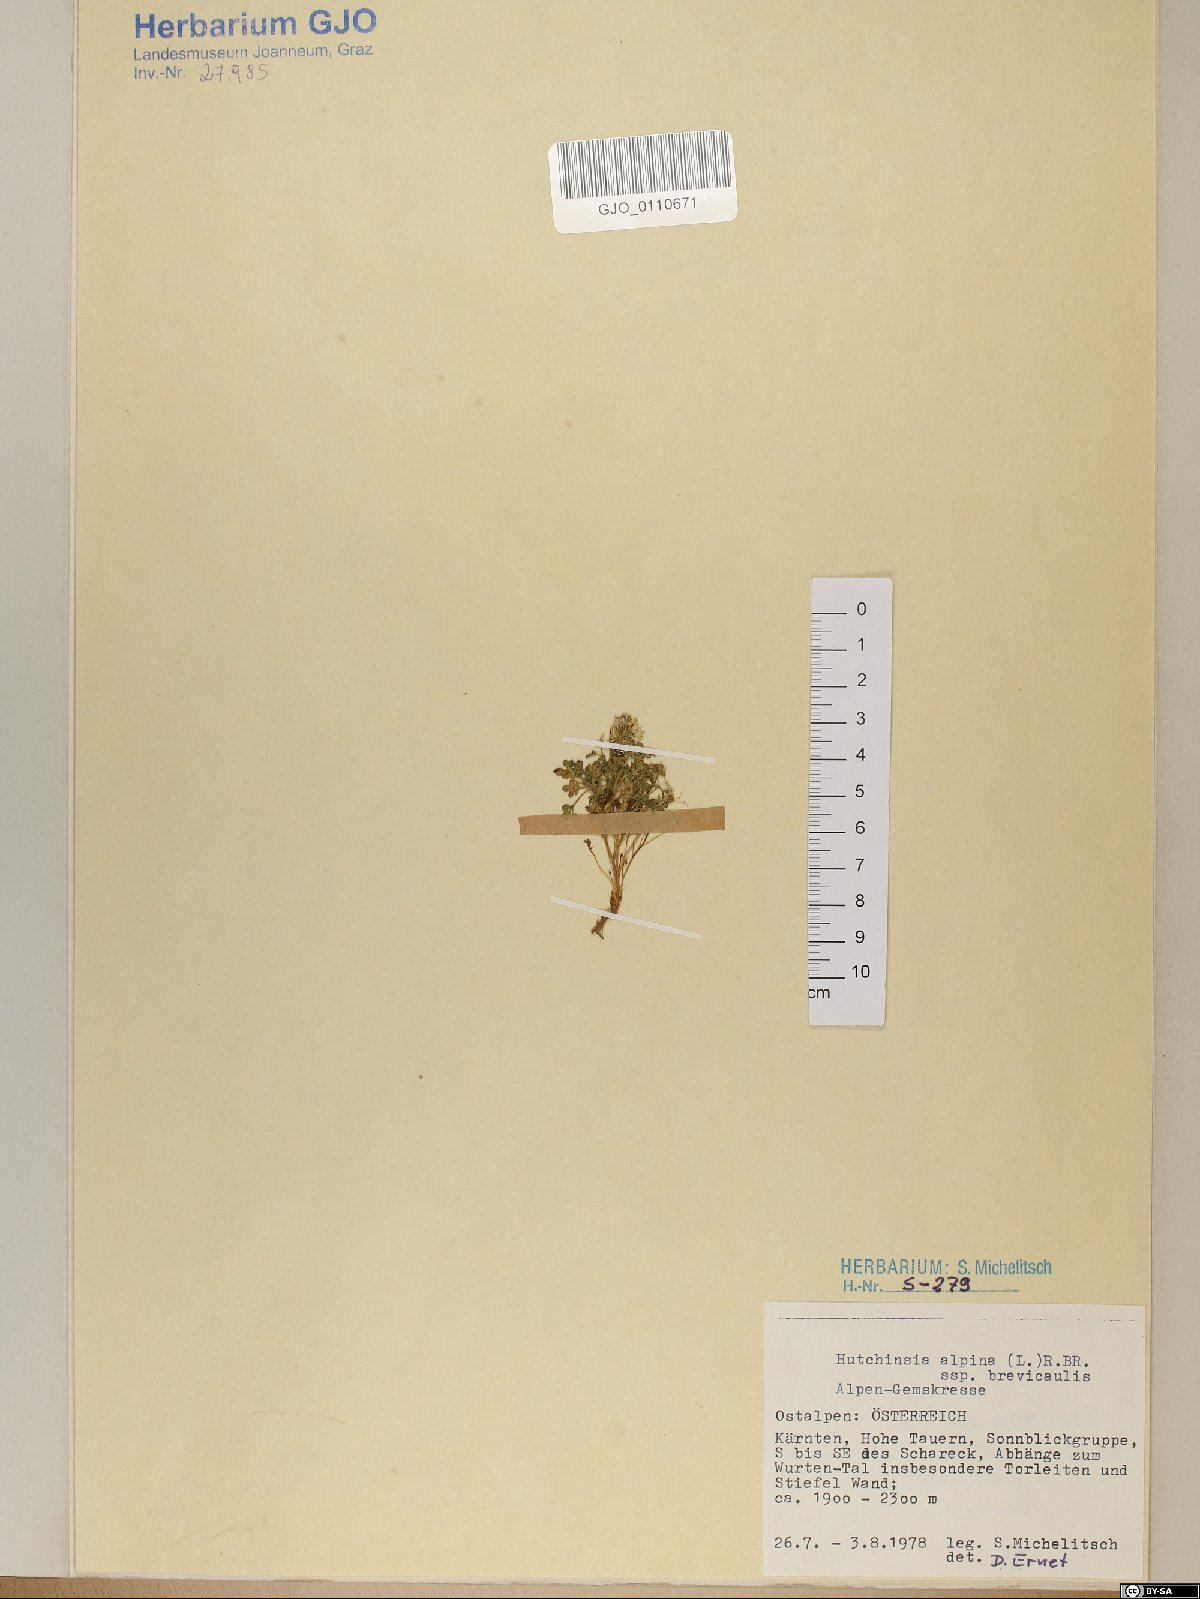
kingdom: Plantae
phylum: Tracheophyta
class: Magnoliopsida
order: Brassicales
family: Brassicaceae
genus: Hornungia
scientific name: Hornungia alpina
